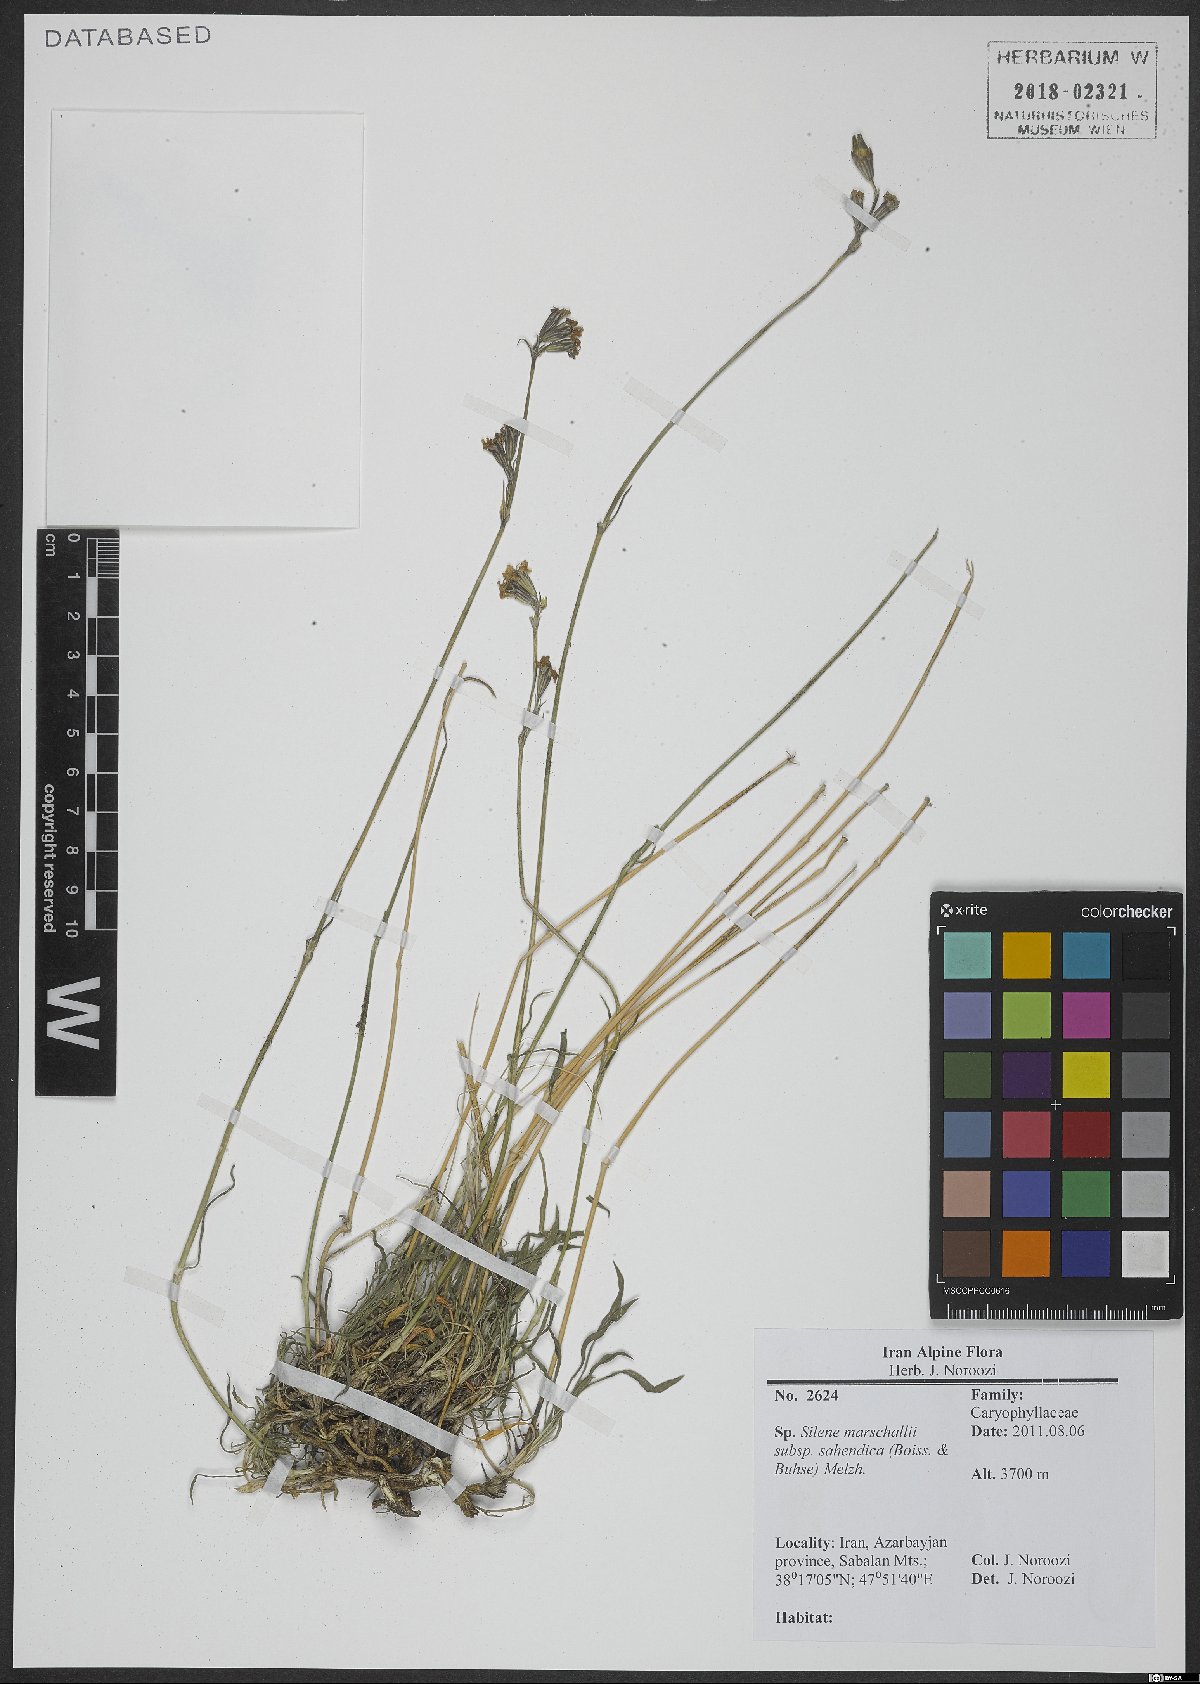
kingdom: Plantae
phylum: Tracheophyta
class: Magnoliopsida
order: Caryophyllales
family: Caryophyllaceae
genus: Silene
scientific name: Silene lasiantha
